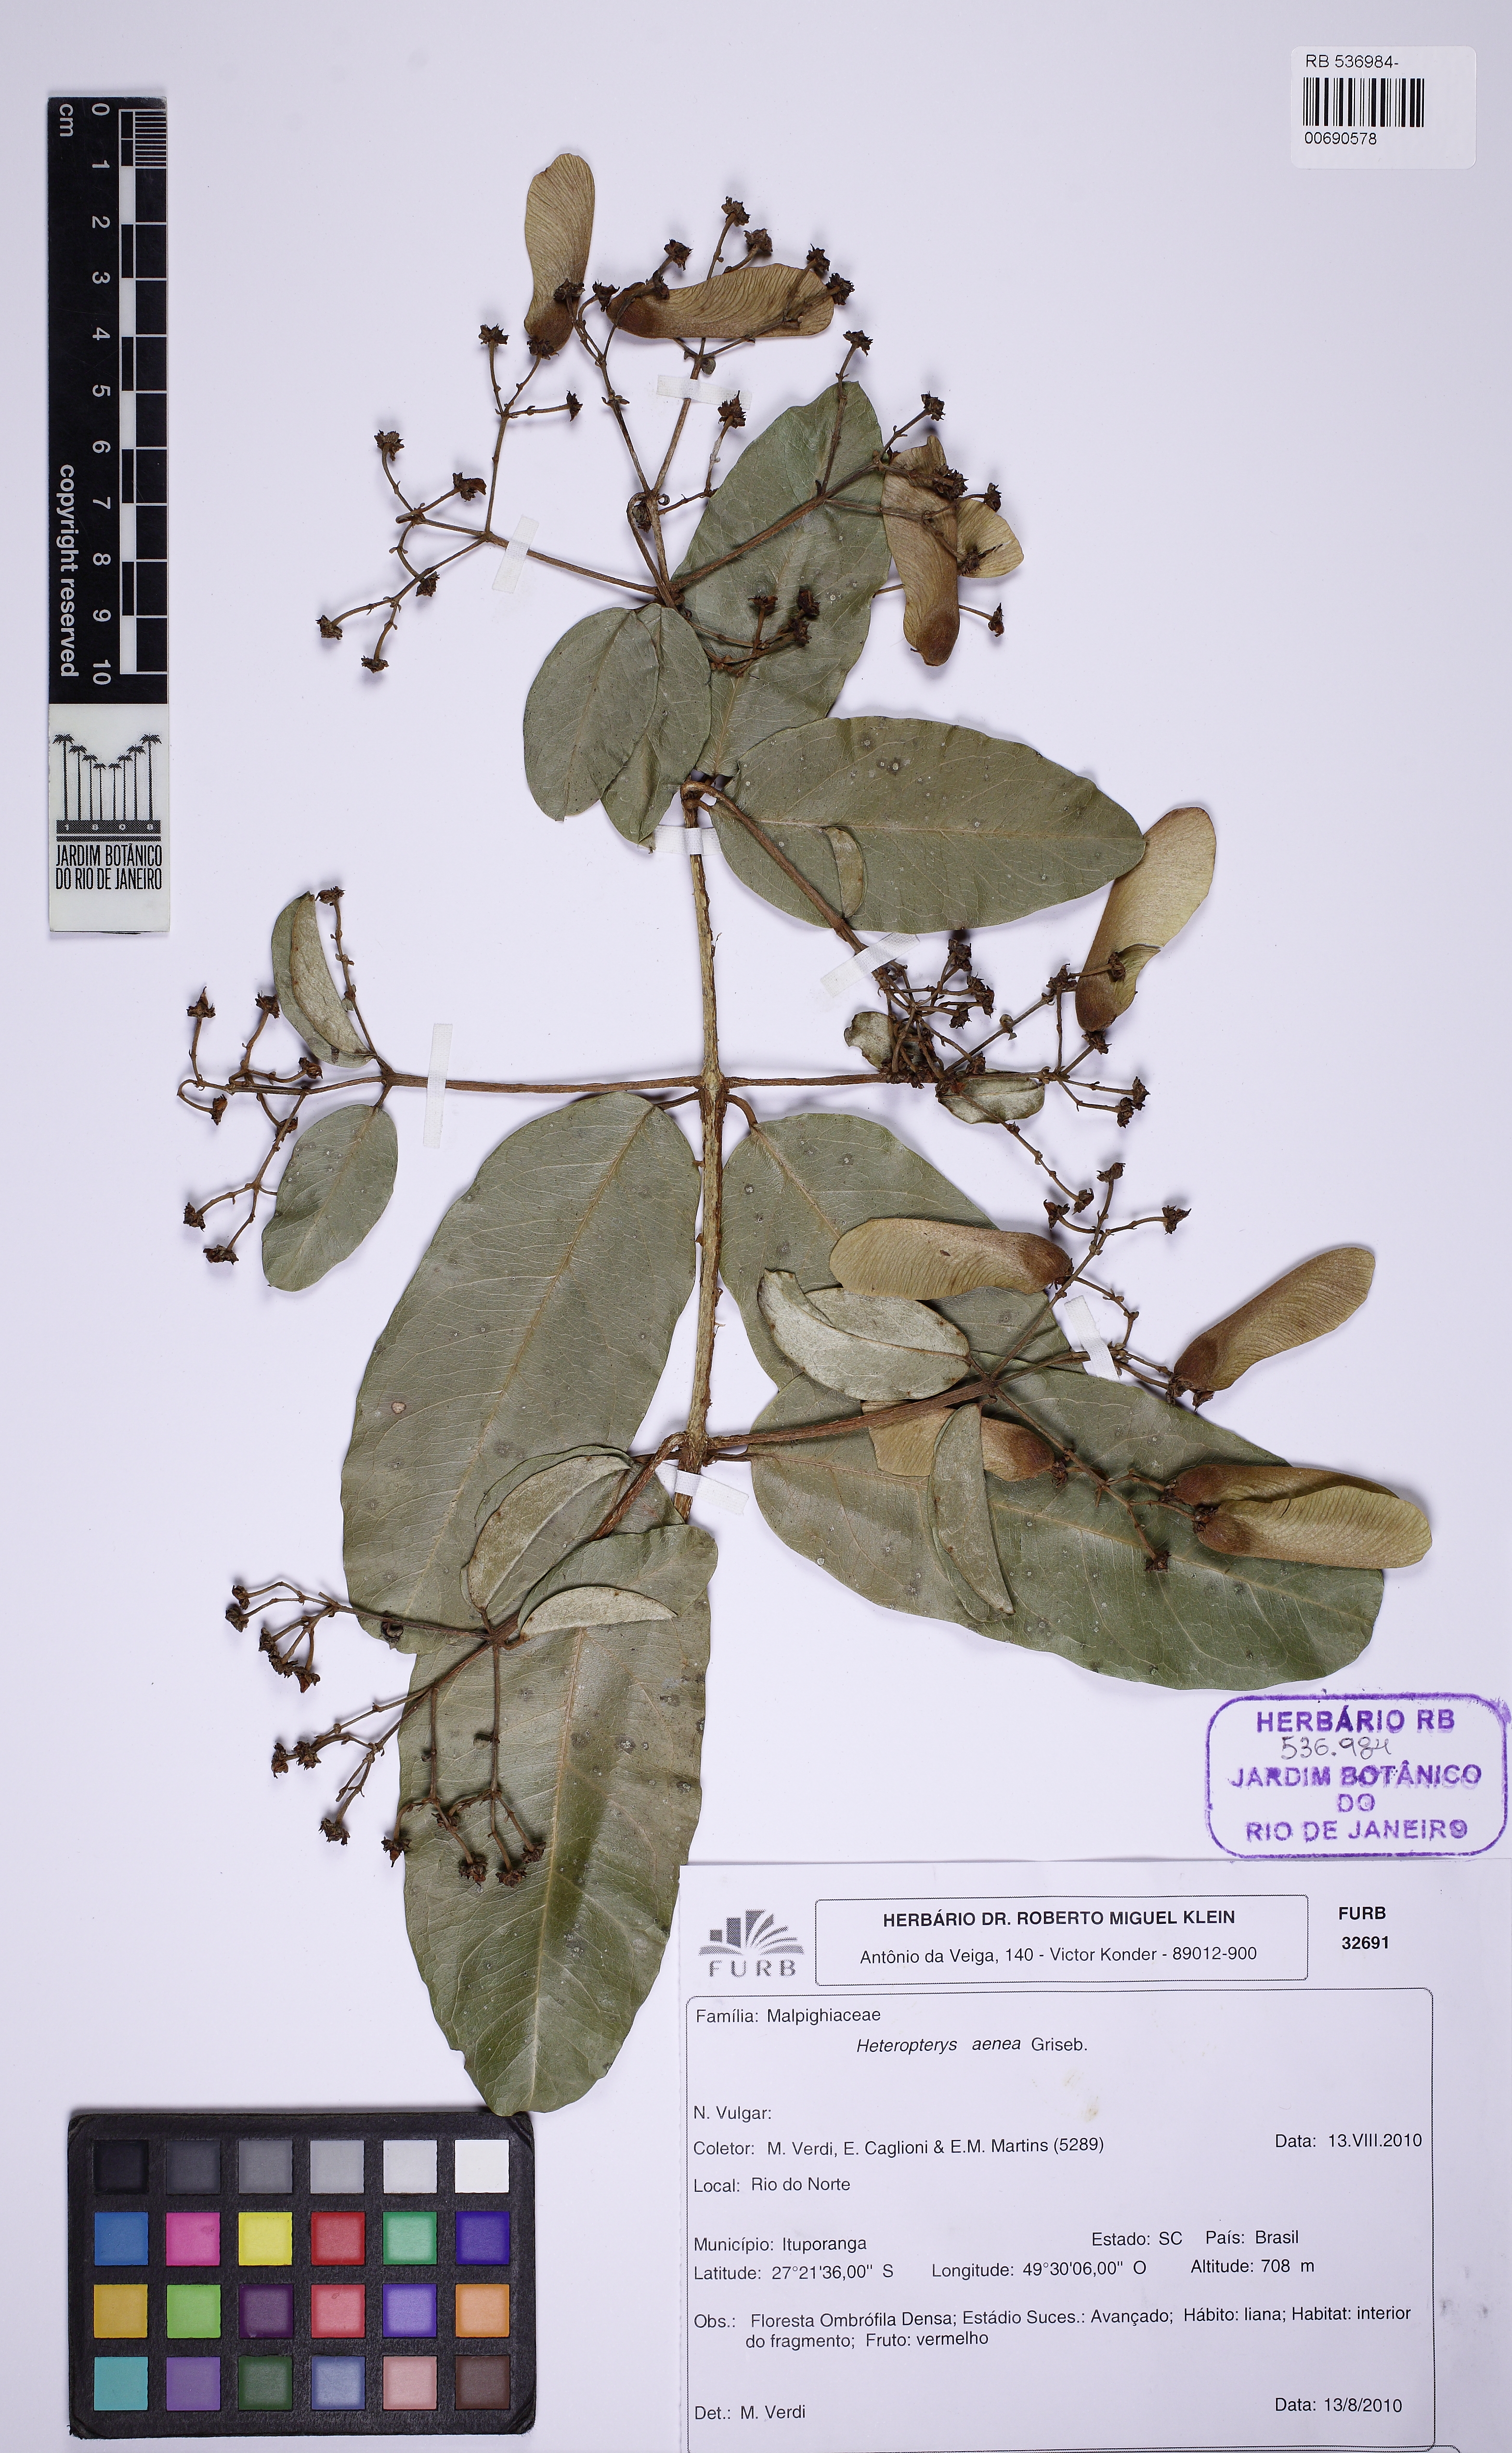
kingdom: Plantae
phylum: Tracheophyta
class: Magnoliopsida
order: Malpighiales
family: Malpighiaceae
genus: Heteropterys
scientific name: Heteropterys aenea
